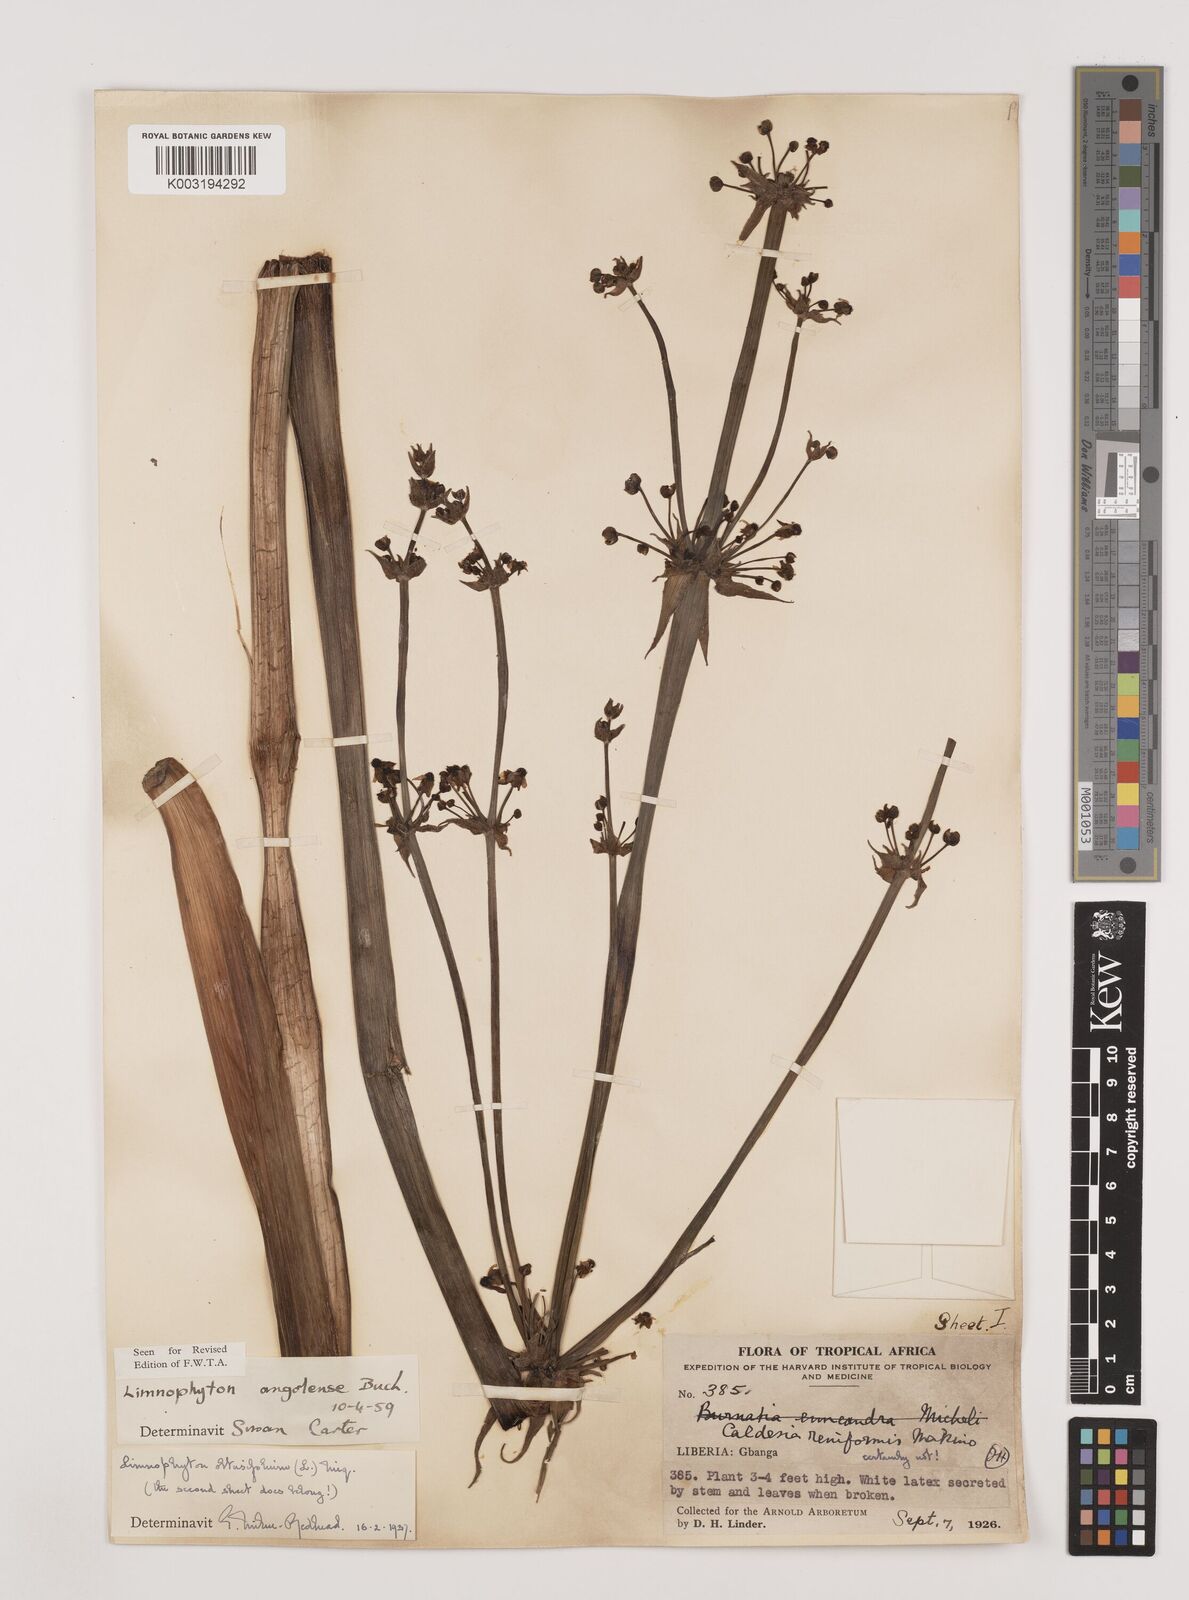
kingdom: Plantae
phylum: Tracheophyta
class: Liliopsida
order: Alismatales
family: Alismataceae
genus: Limnophyton
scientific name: Limnophyton angolense
